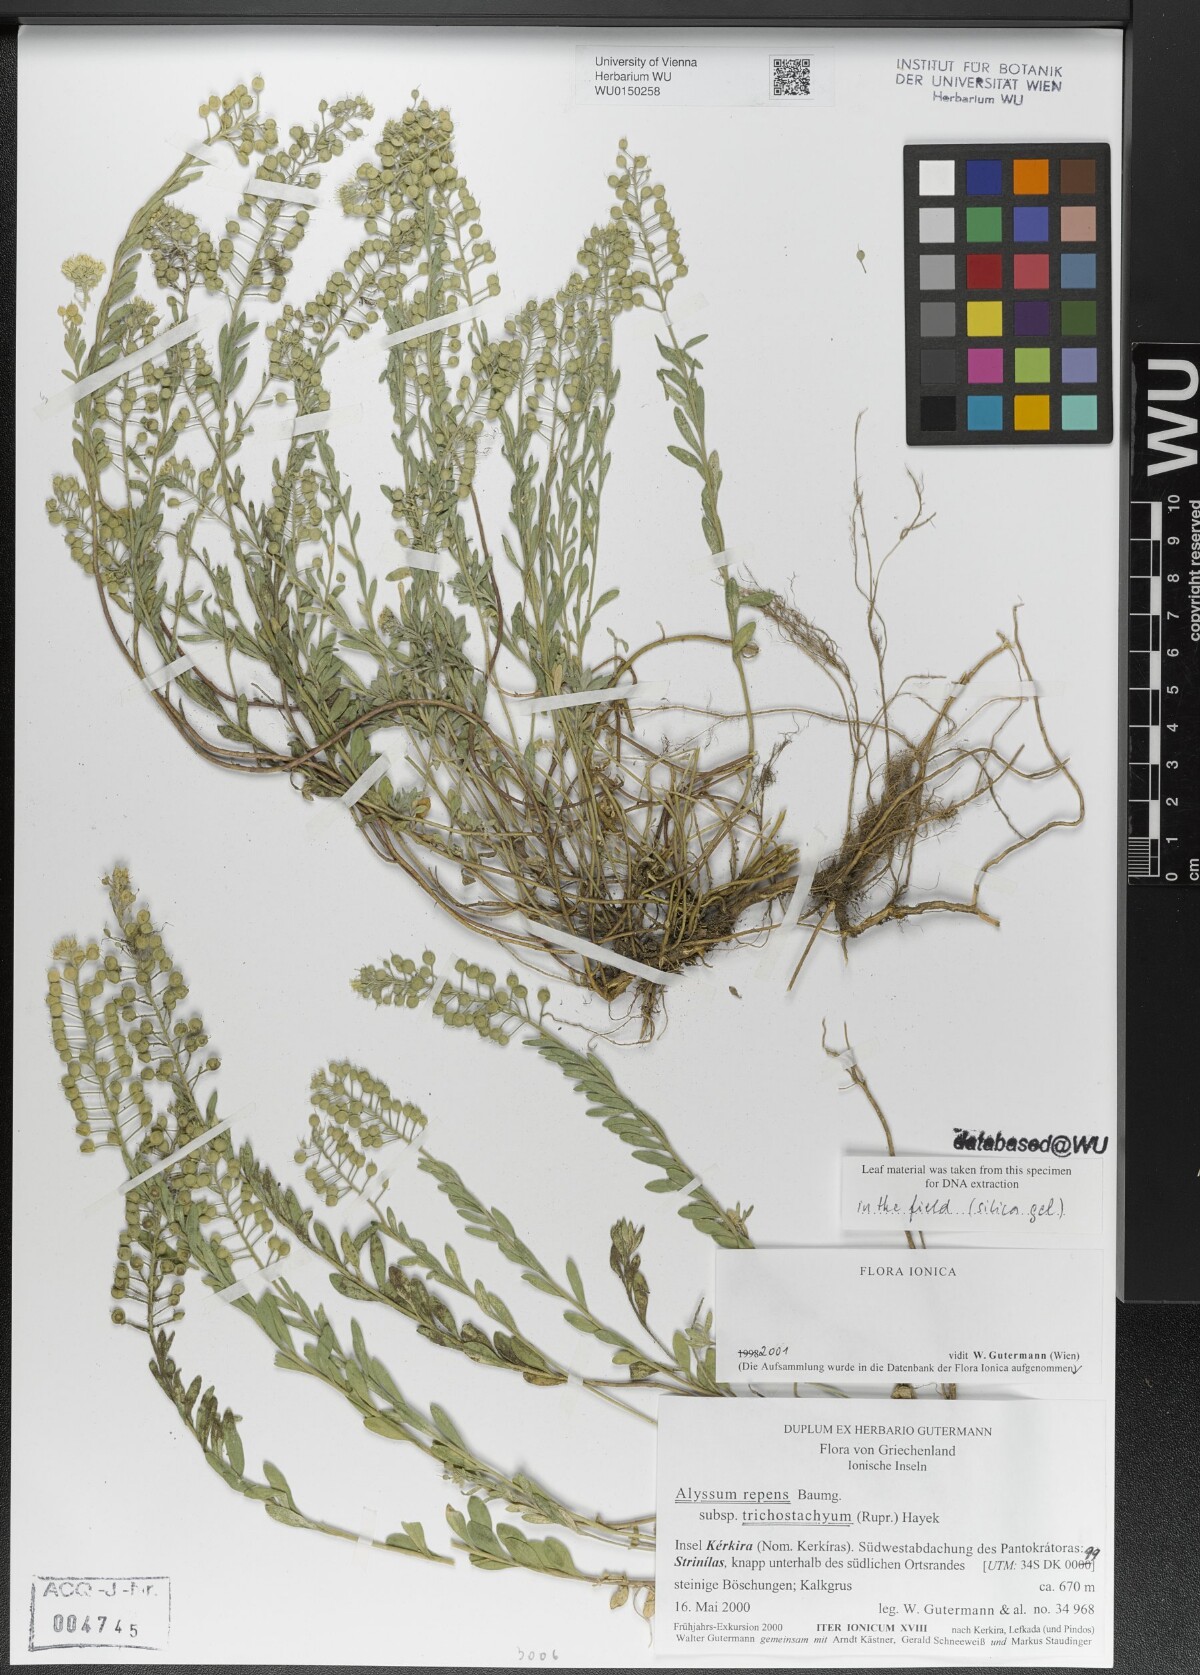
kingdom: Plantae
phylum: Tracheophyta
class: Magnoliopsida
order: Brassicales
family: Brassicaceae
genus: Alyssum
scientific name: Alyssum trichostachyum
